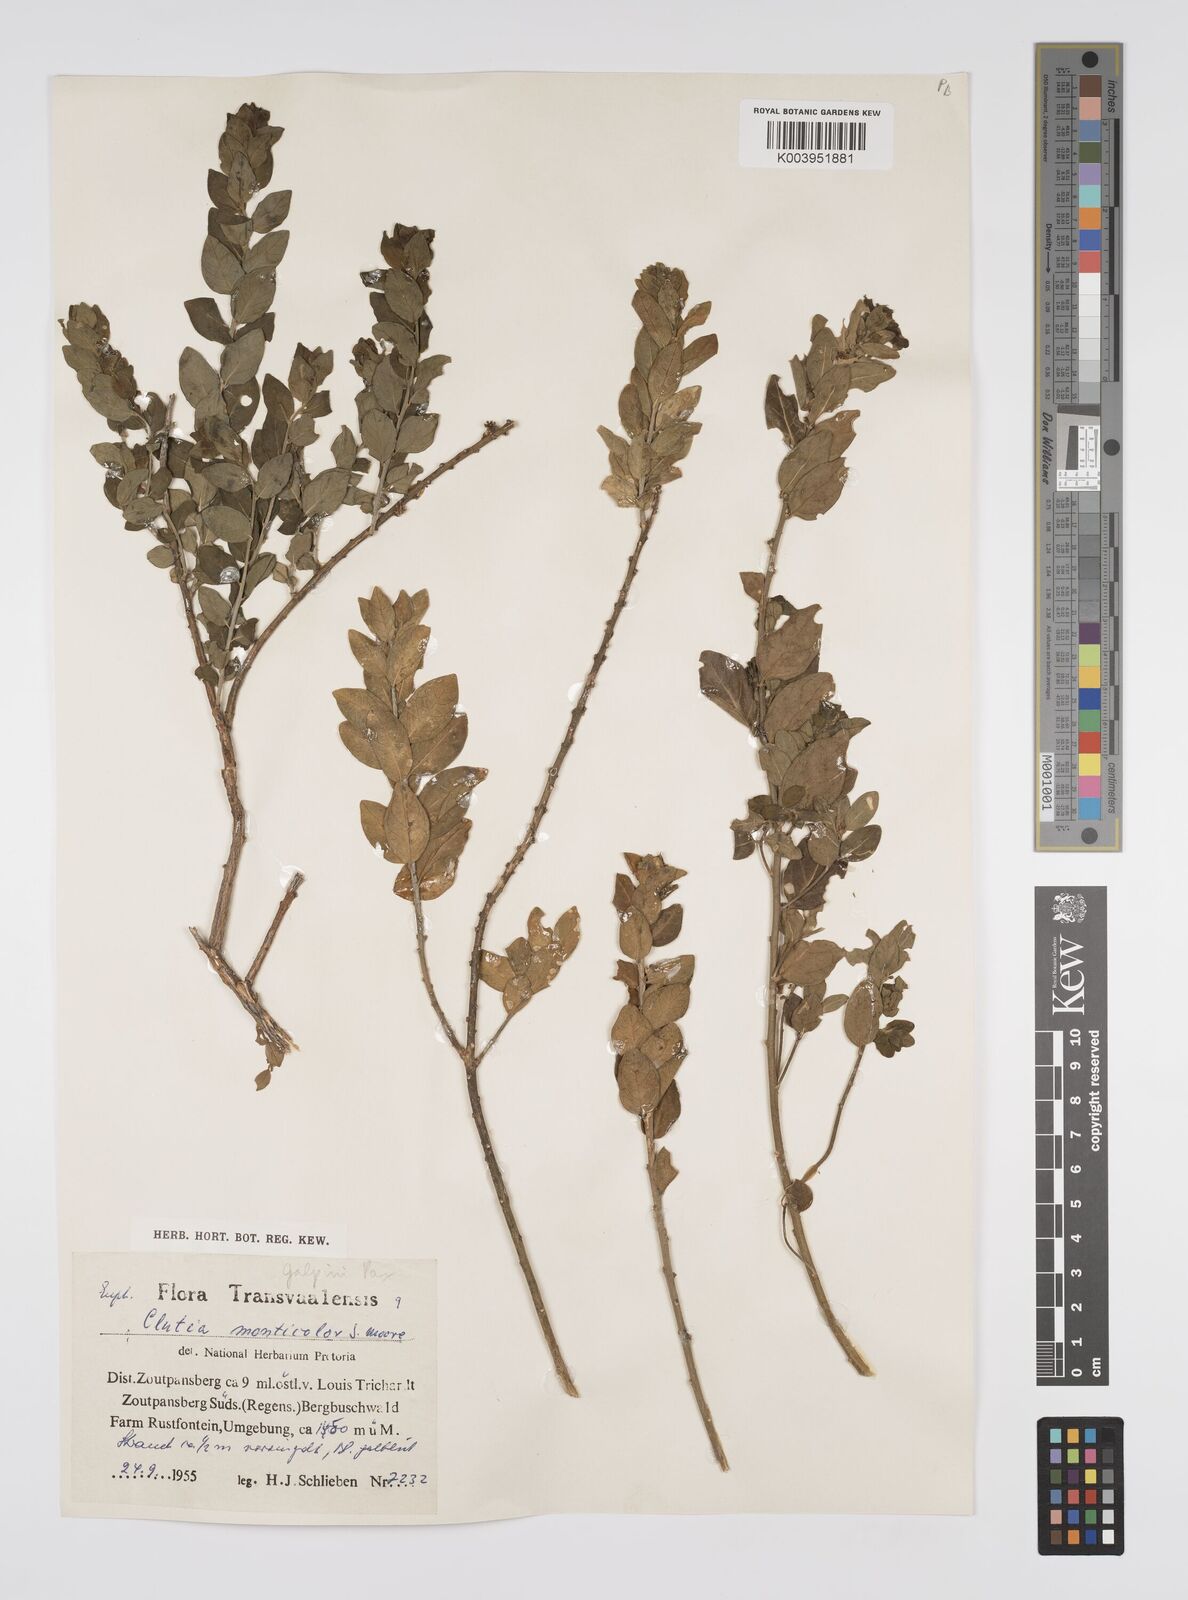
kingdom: Plantae
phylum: Tracheophyta
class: Magnoliopsida
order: Malpighiales
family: Peraceae
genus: Clutia
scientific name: Clutia galpinii
